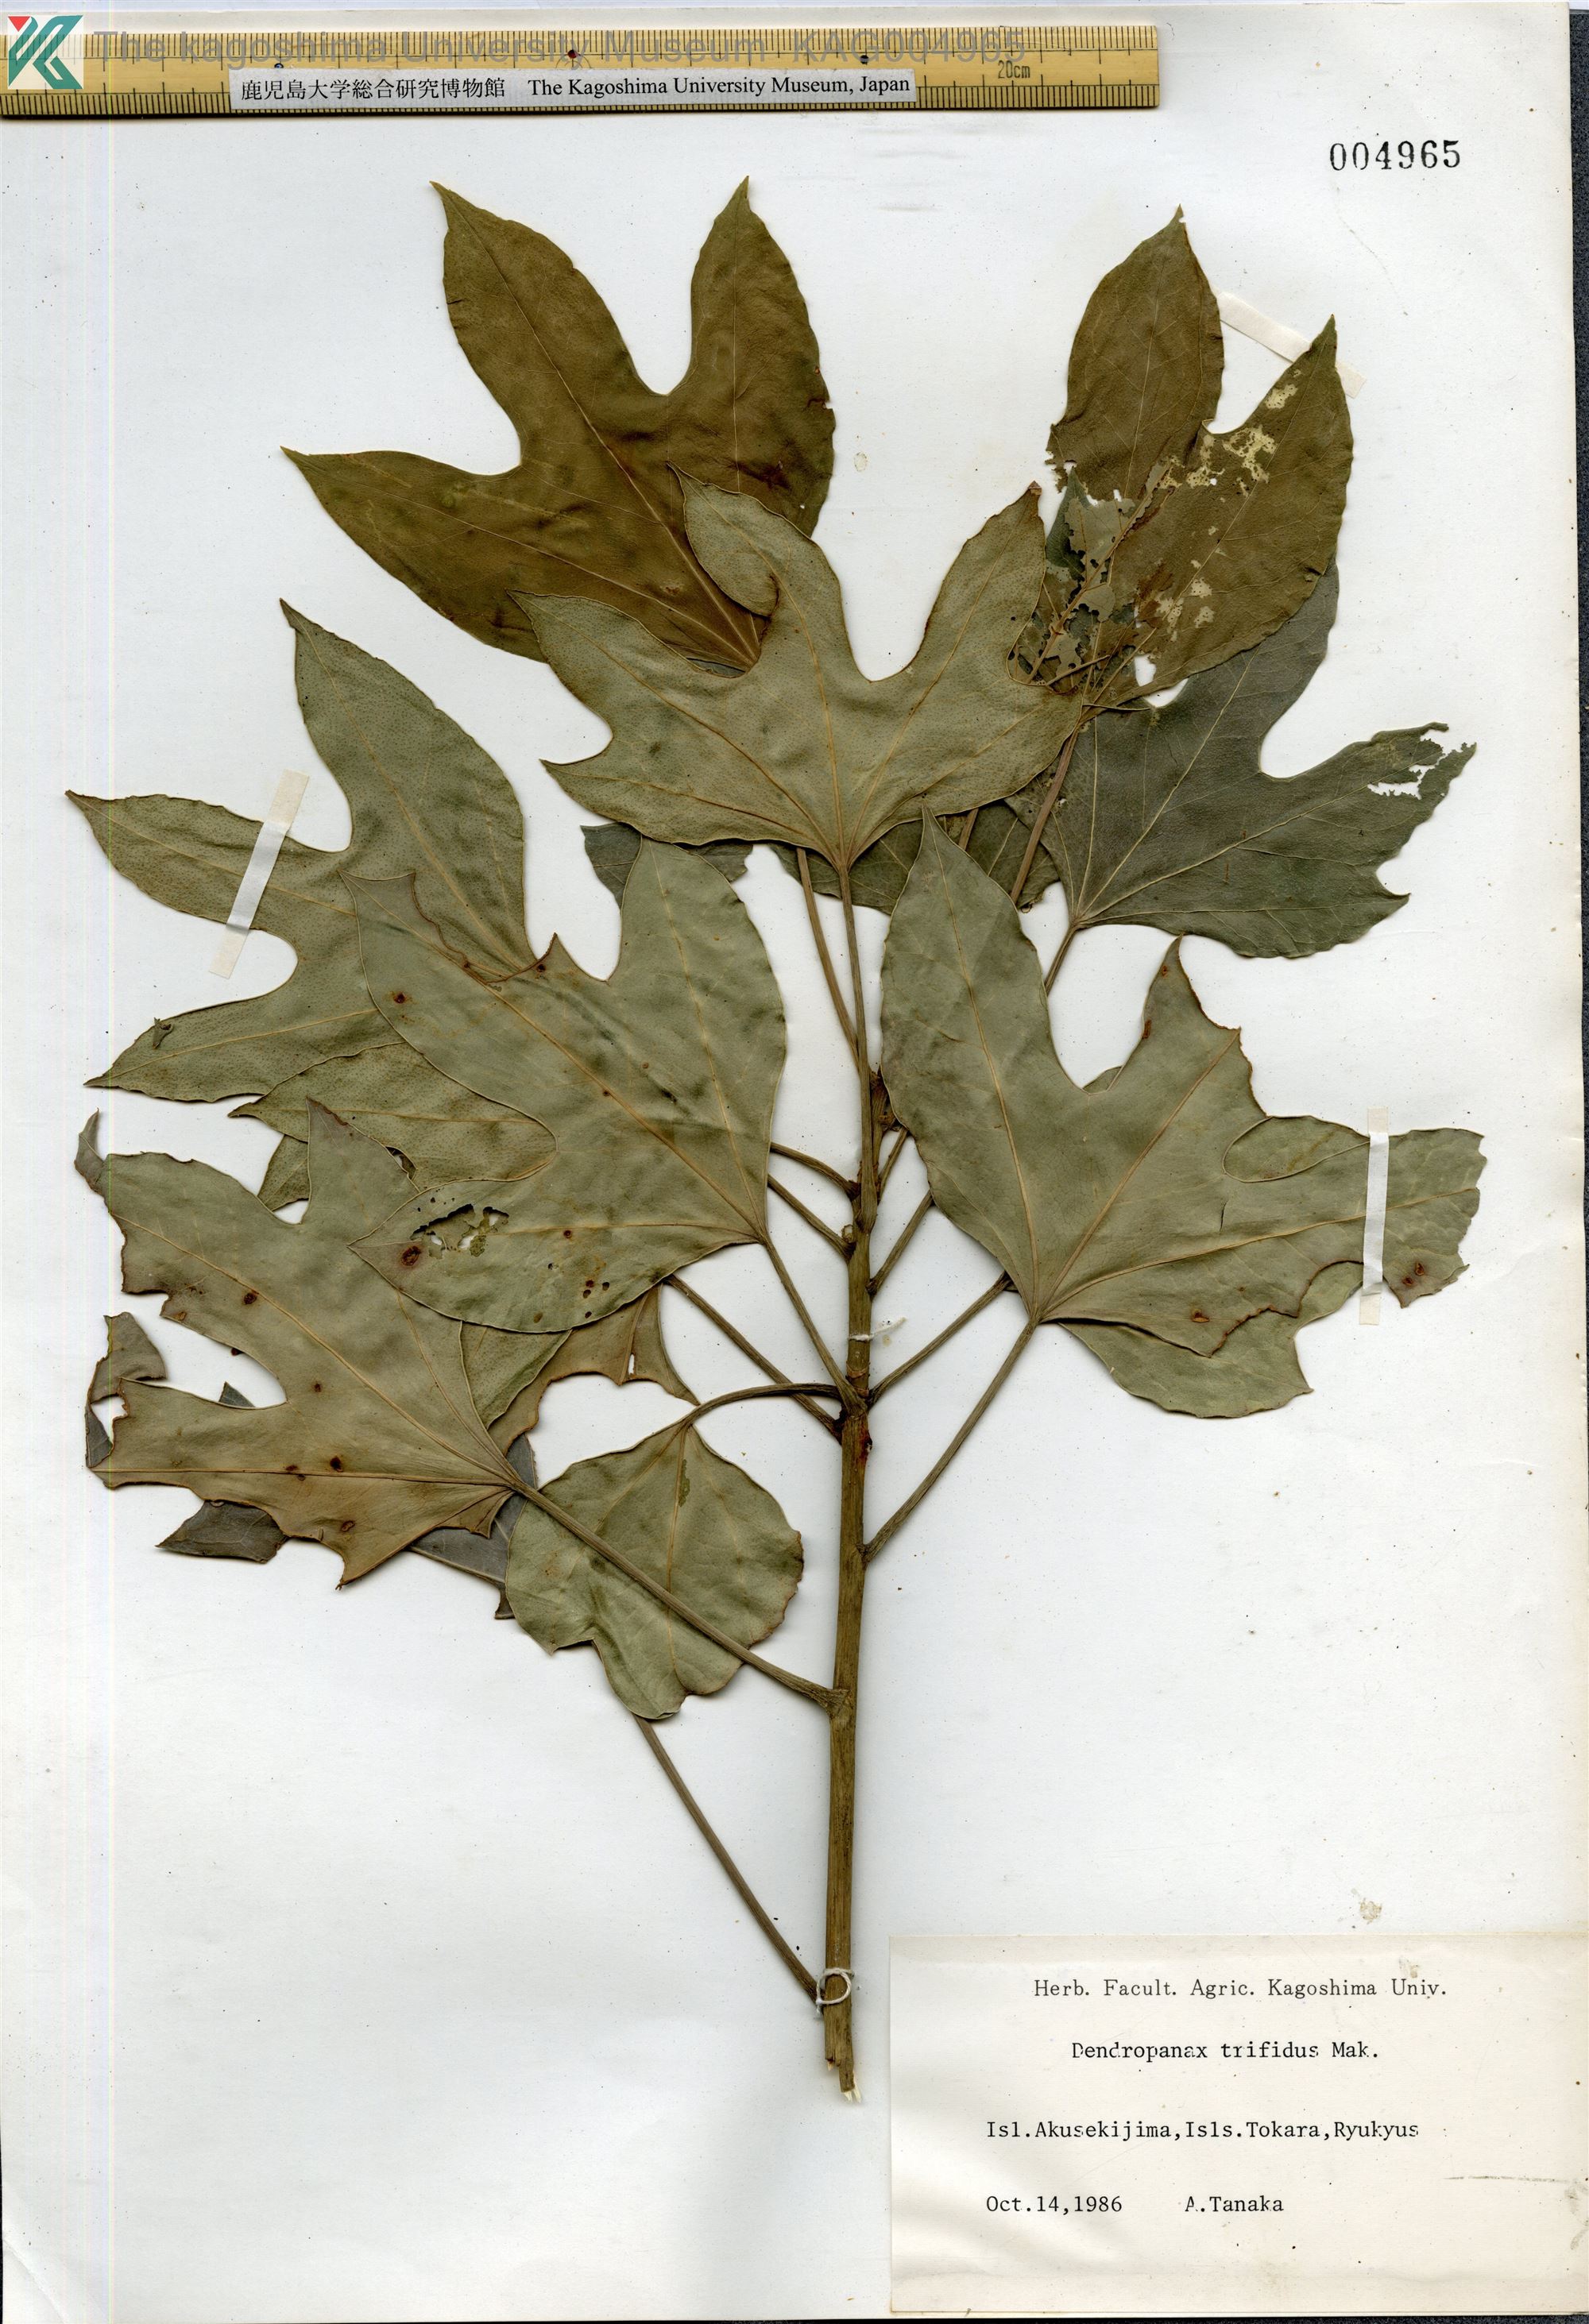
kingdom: Plantae
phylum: Tracheophyta
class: Magnoliopsida
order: Apiales
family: Araliaceae
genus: Dendropanax
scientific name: Dendropanax trifidus
